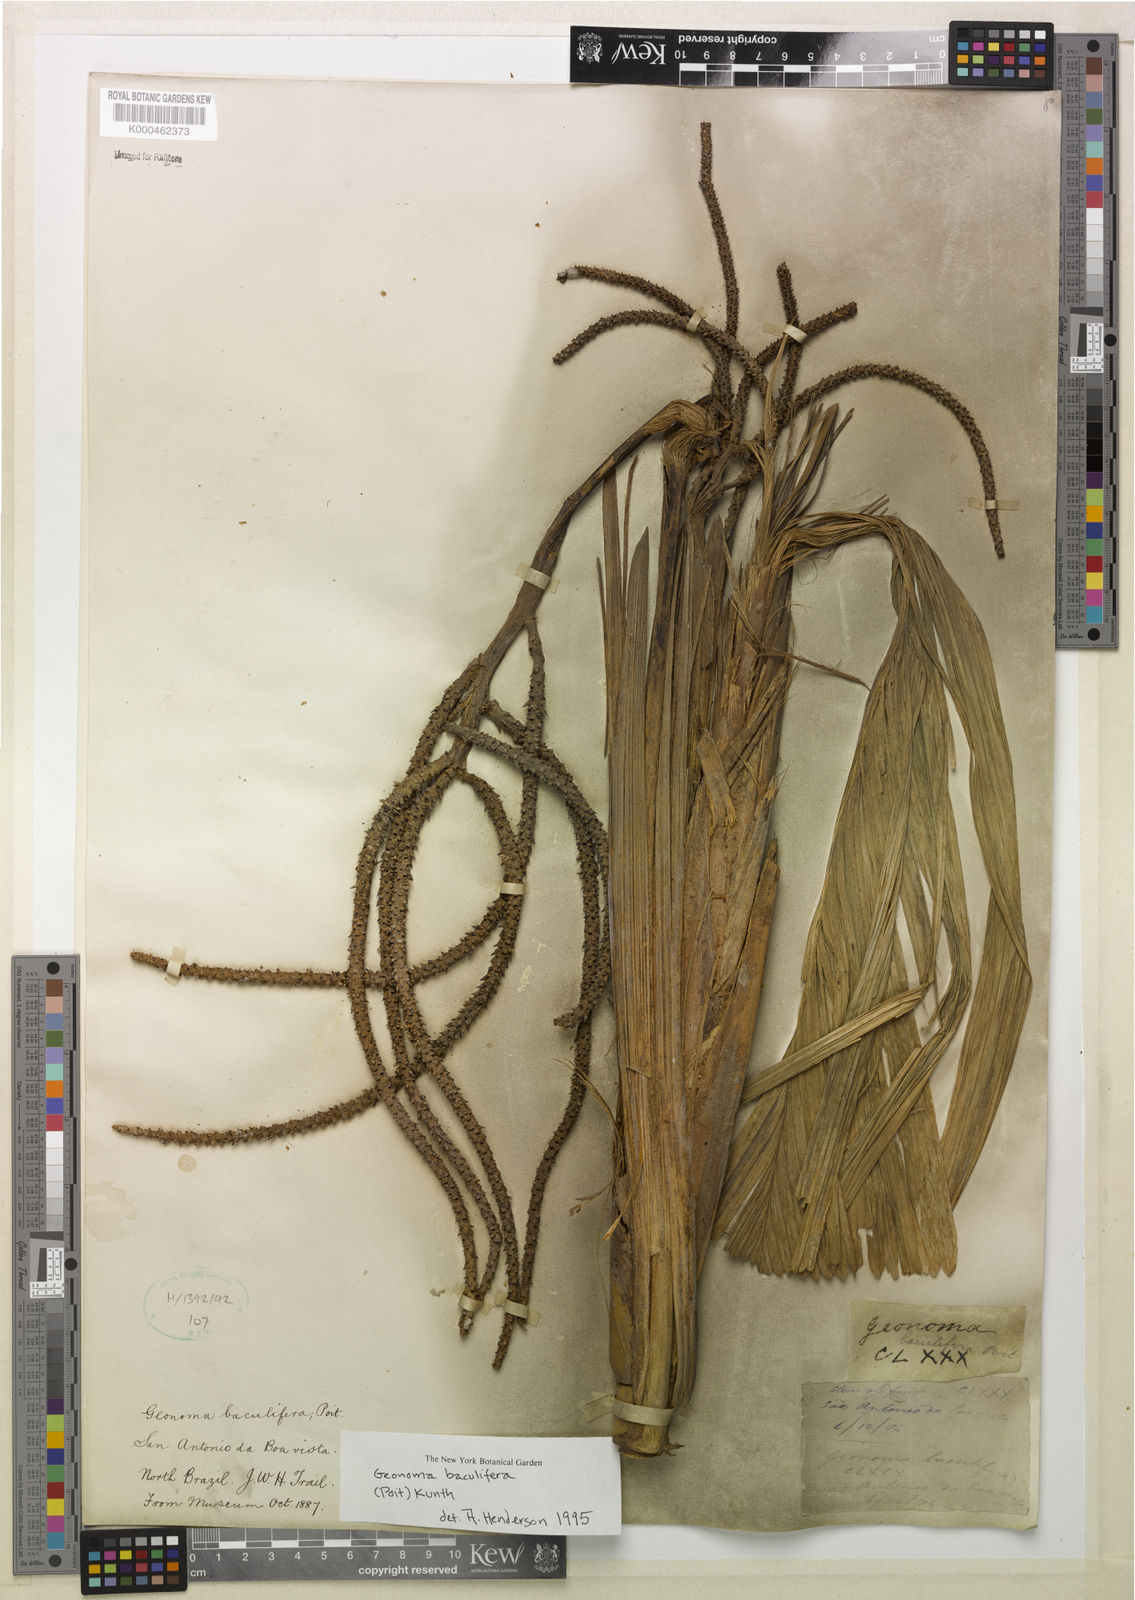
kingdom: Plantae
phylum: Tracheophyta
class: Liliopsida
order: Arecales
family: Arecaceae
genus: Geonoma
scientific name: Geonoma baculifera
